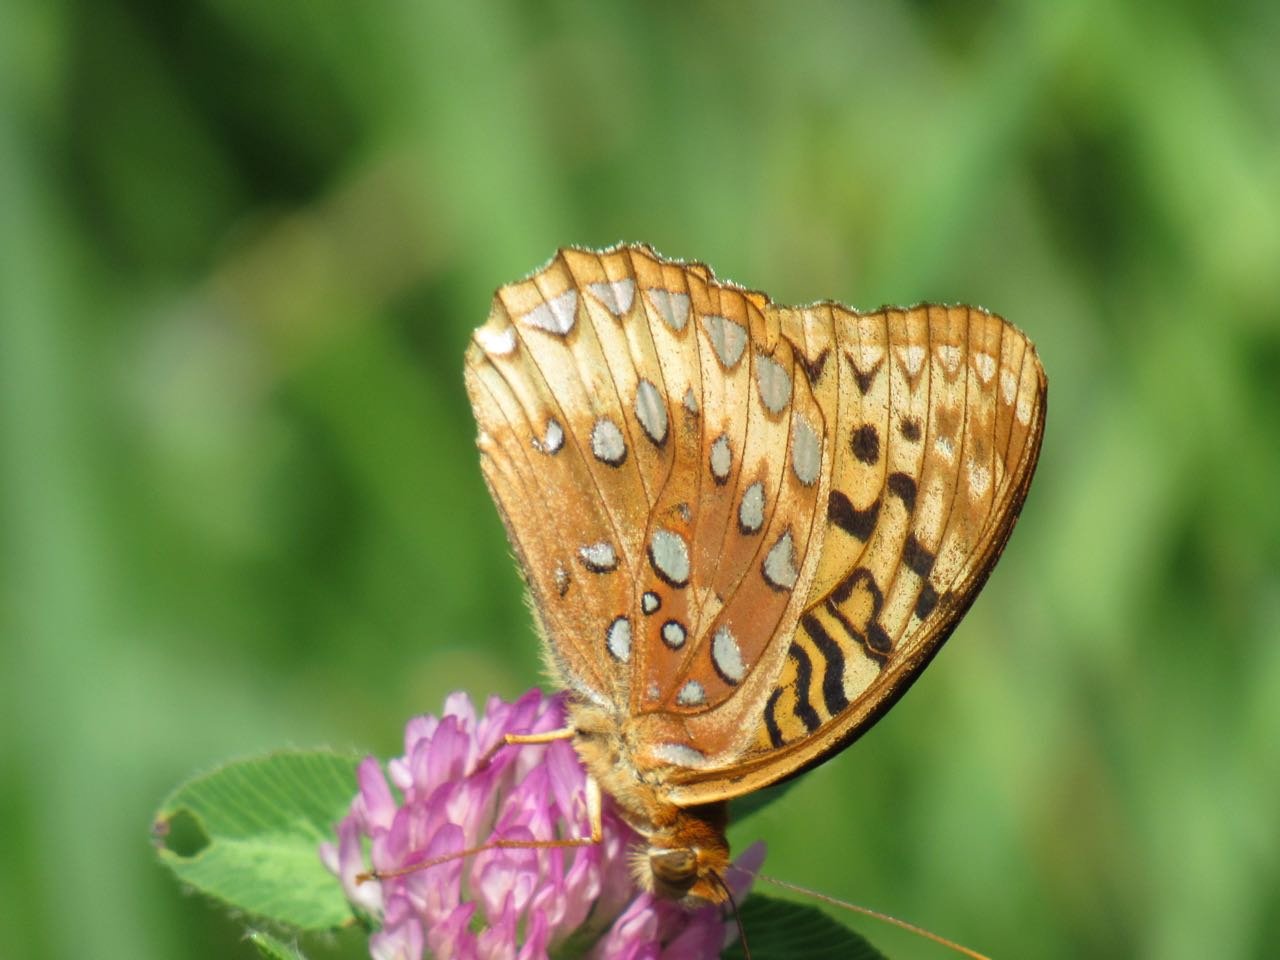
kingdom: Animalia
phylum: Arthropoda
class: Insecta
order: Lepidoptera
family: Nymphalidae
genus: Speyeria
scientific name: Speyeria cybele
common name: Great Spangled Fritillary
